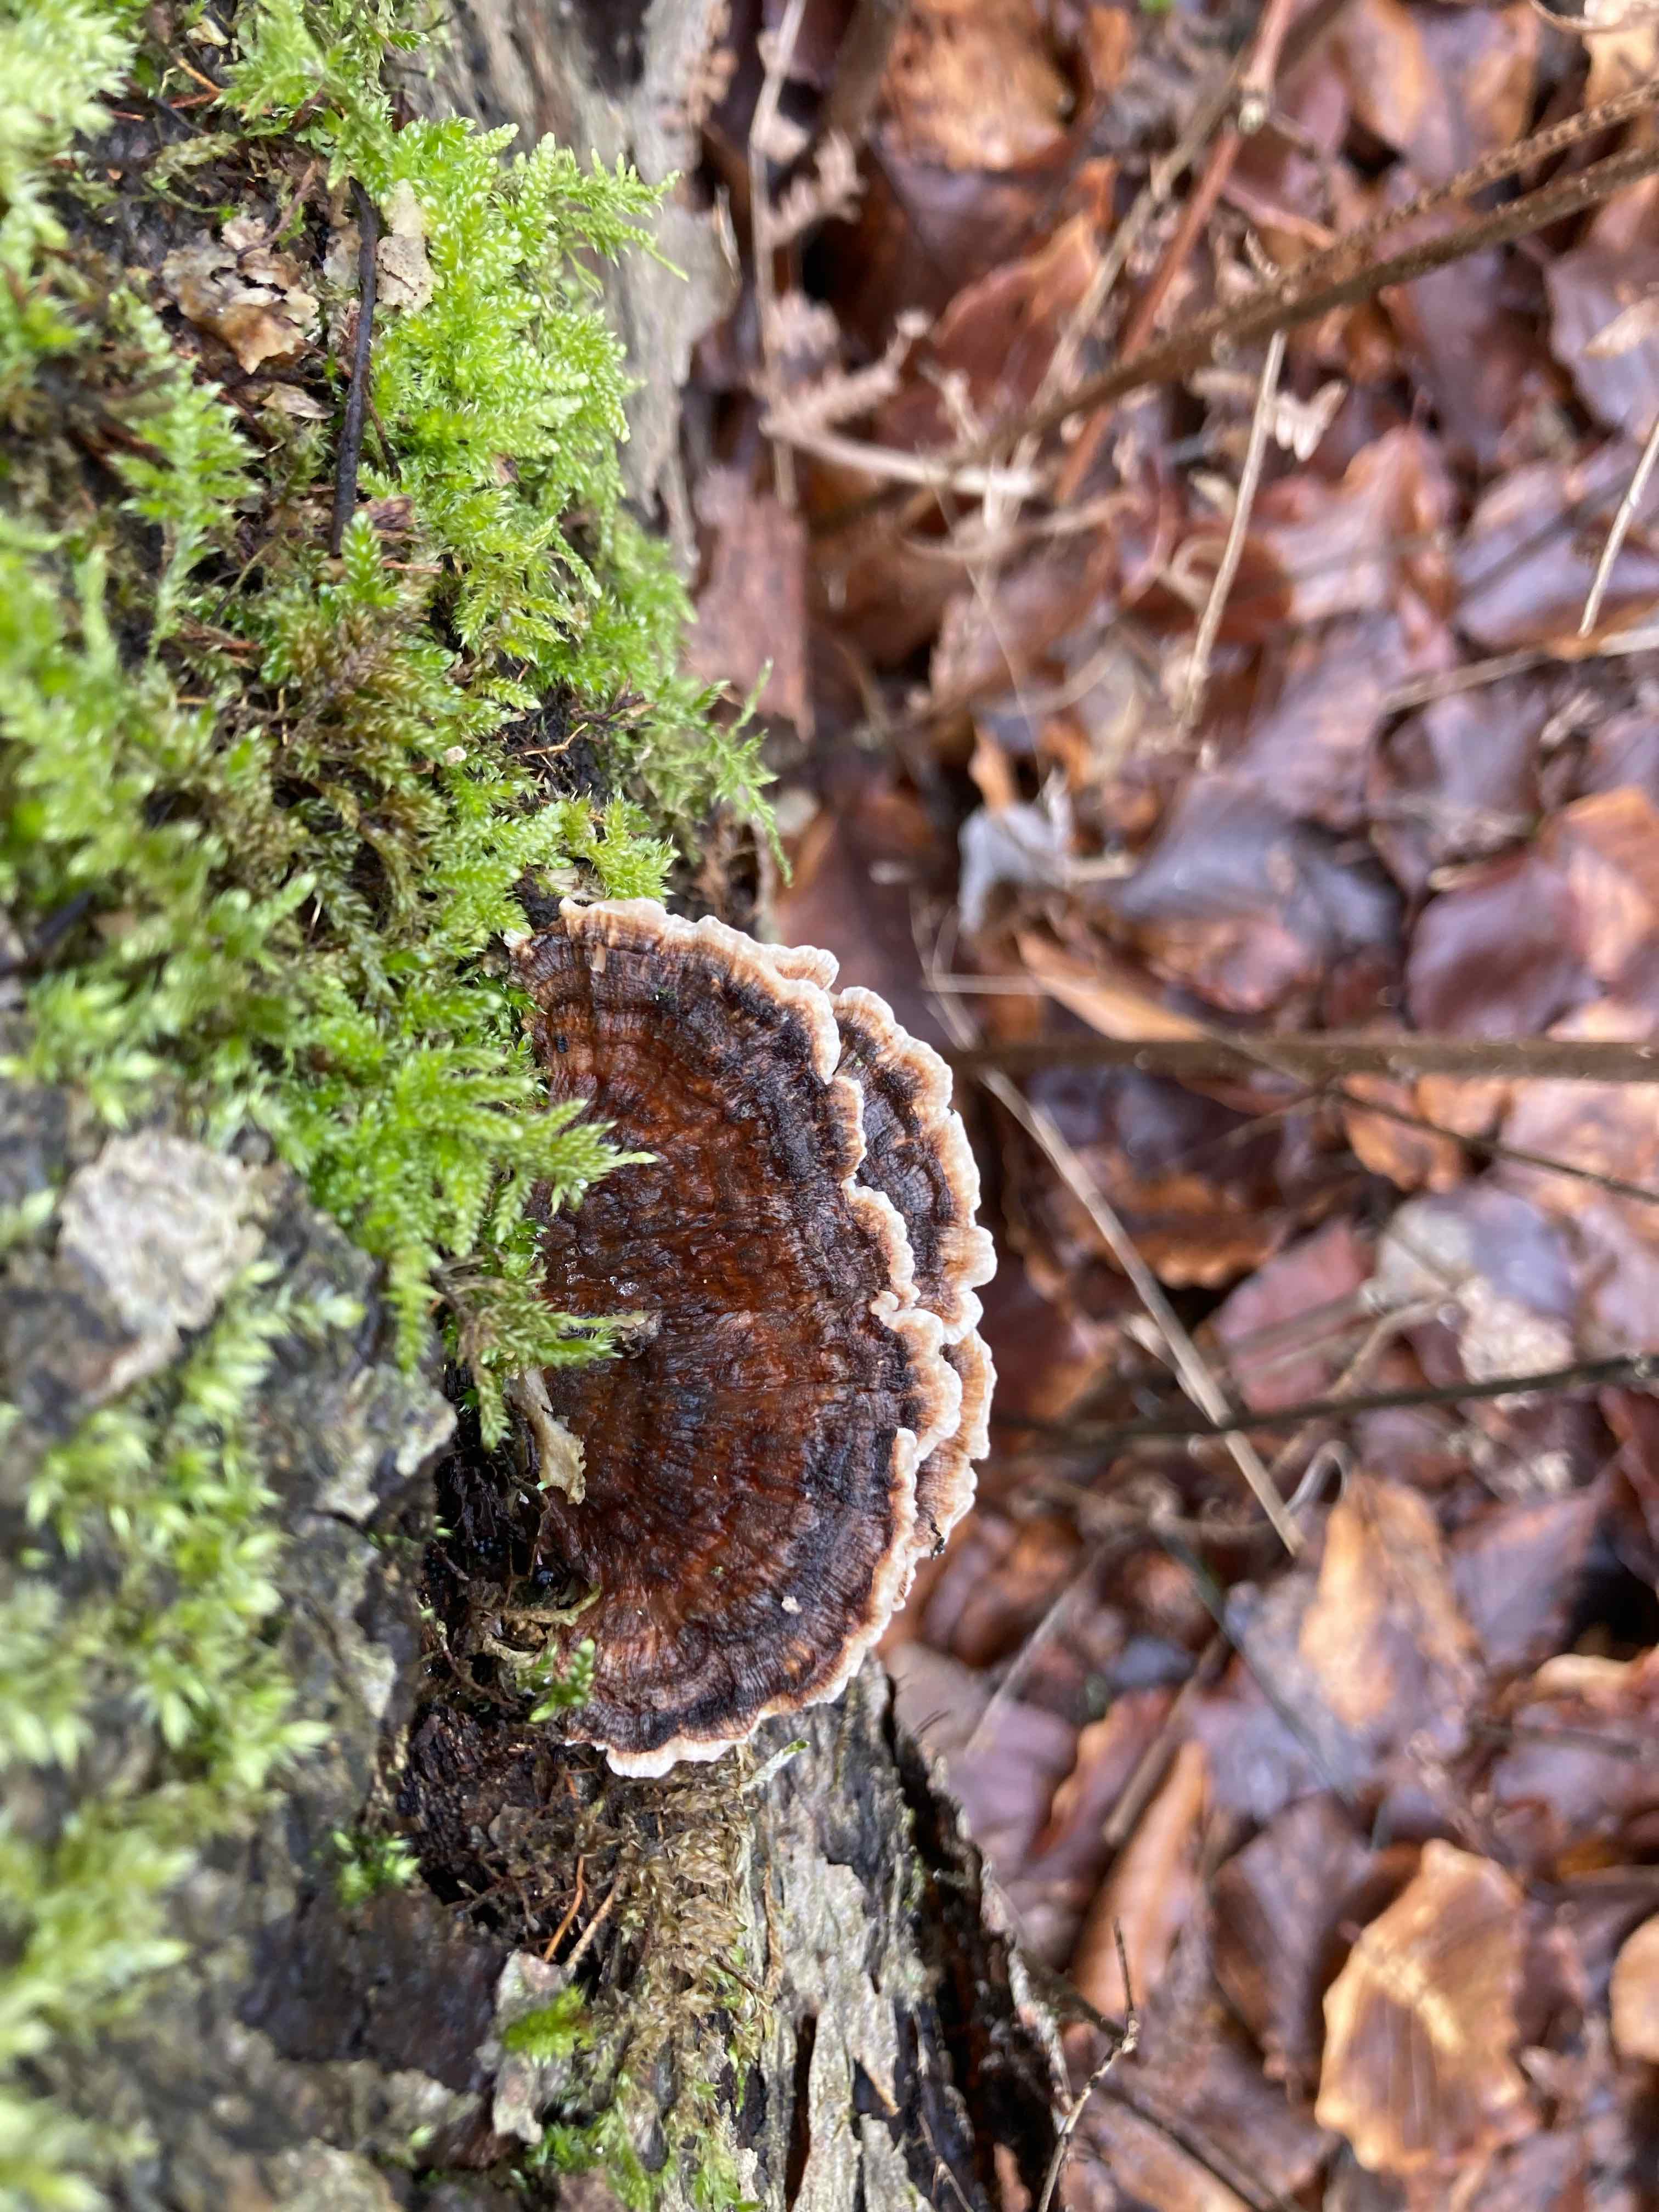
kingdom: Fungi
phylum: Basidiomycota
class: Agaricomycetes
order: Polyporales
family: Polyporaceae
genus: Trametes
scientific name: Trametes versicolor
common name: broget læderporesvamp
